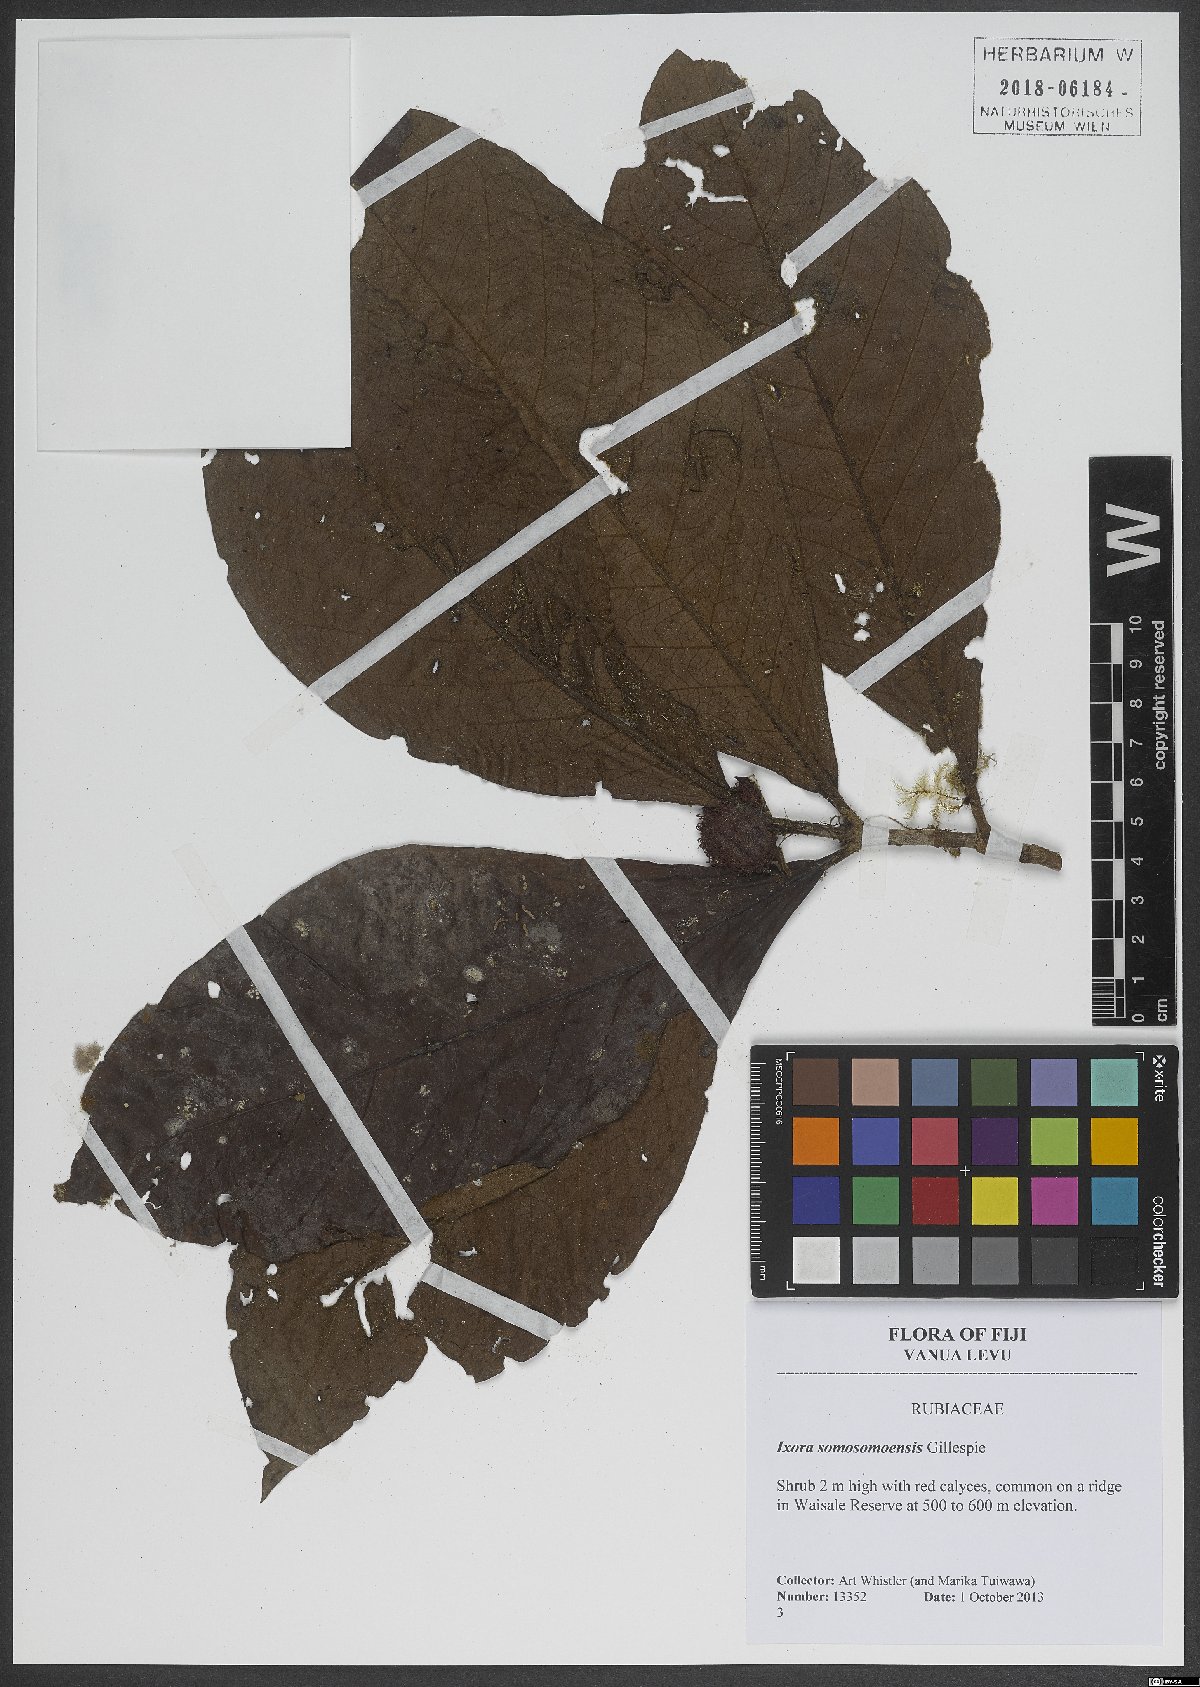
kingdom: Plantae
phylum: Tracheophyta
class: Magnoliopsida
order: Gentianales
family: Rubiaceae
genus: Ixora
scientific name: Ixora somosomaensis
